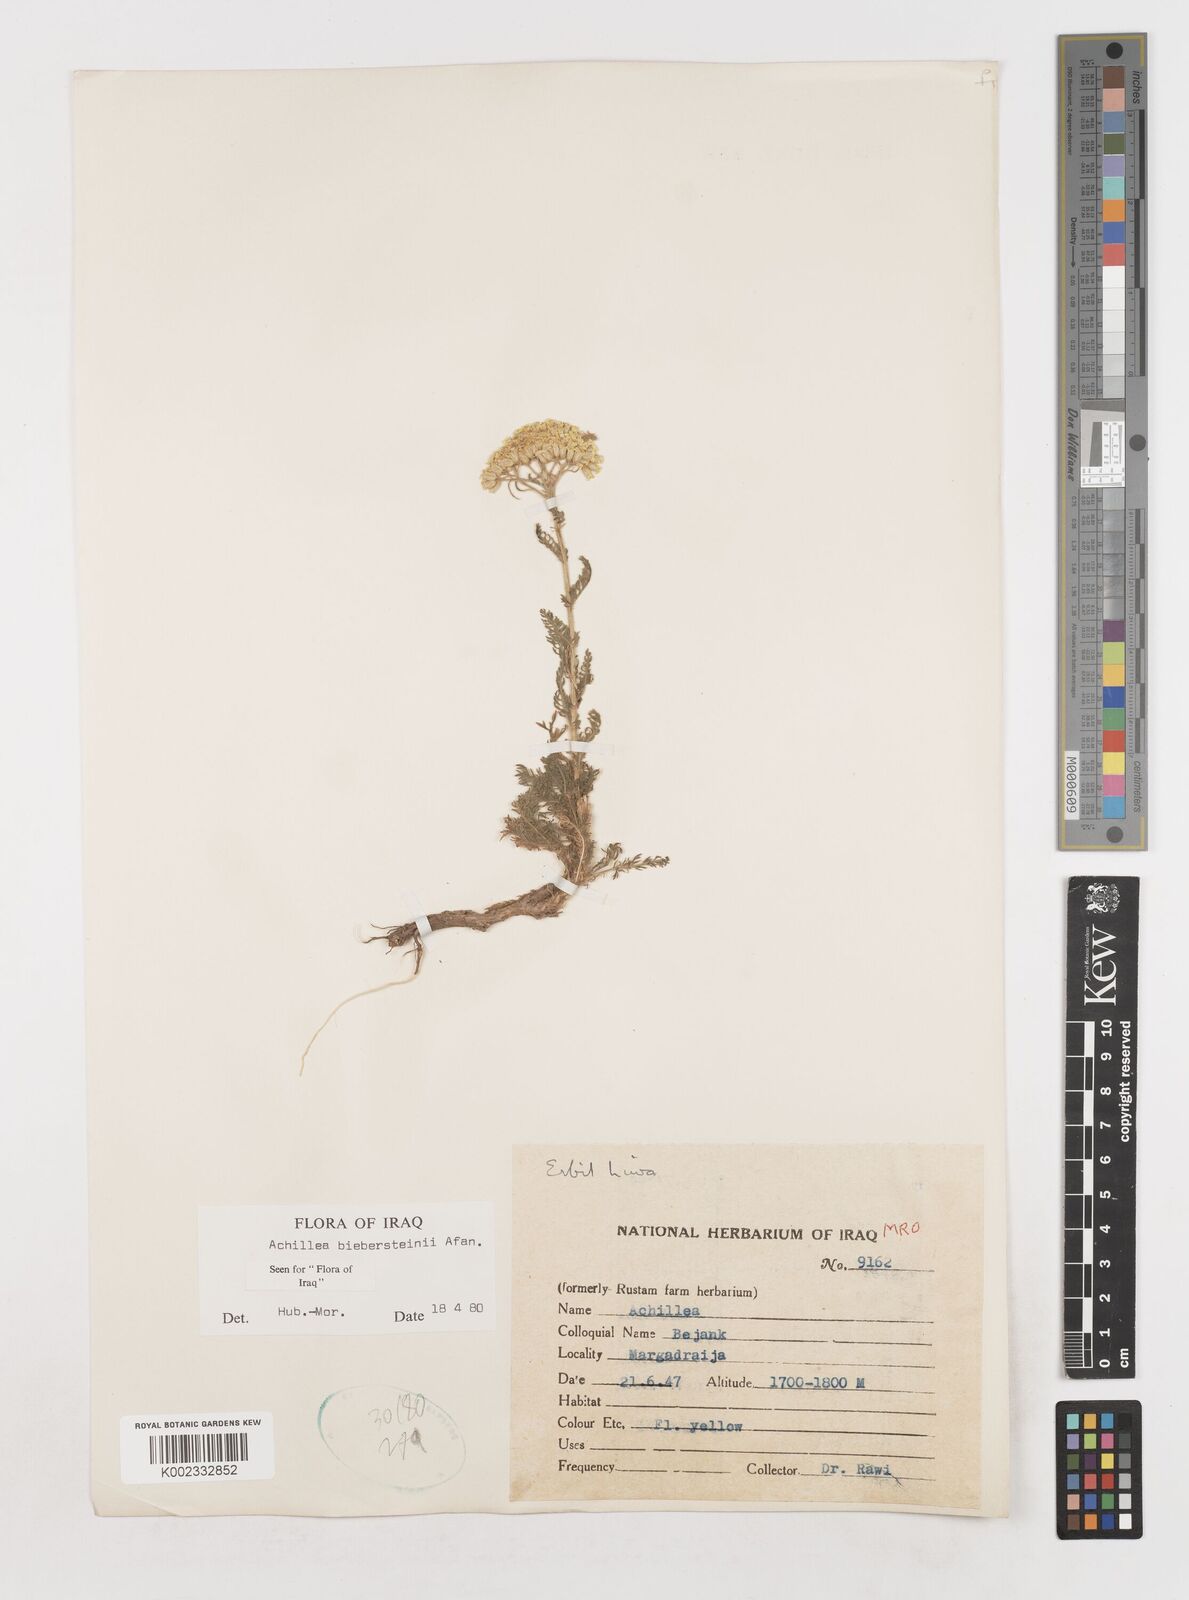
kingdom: Plantae
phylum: Tracheophyta
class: Magnoliopsida
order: Asterales
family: Asteraceae
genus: Achillea
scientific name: Achillea arabica
